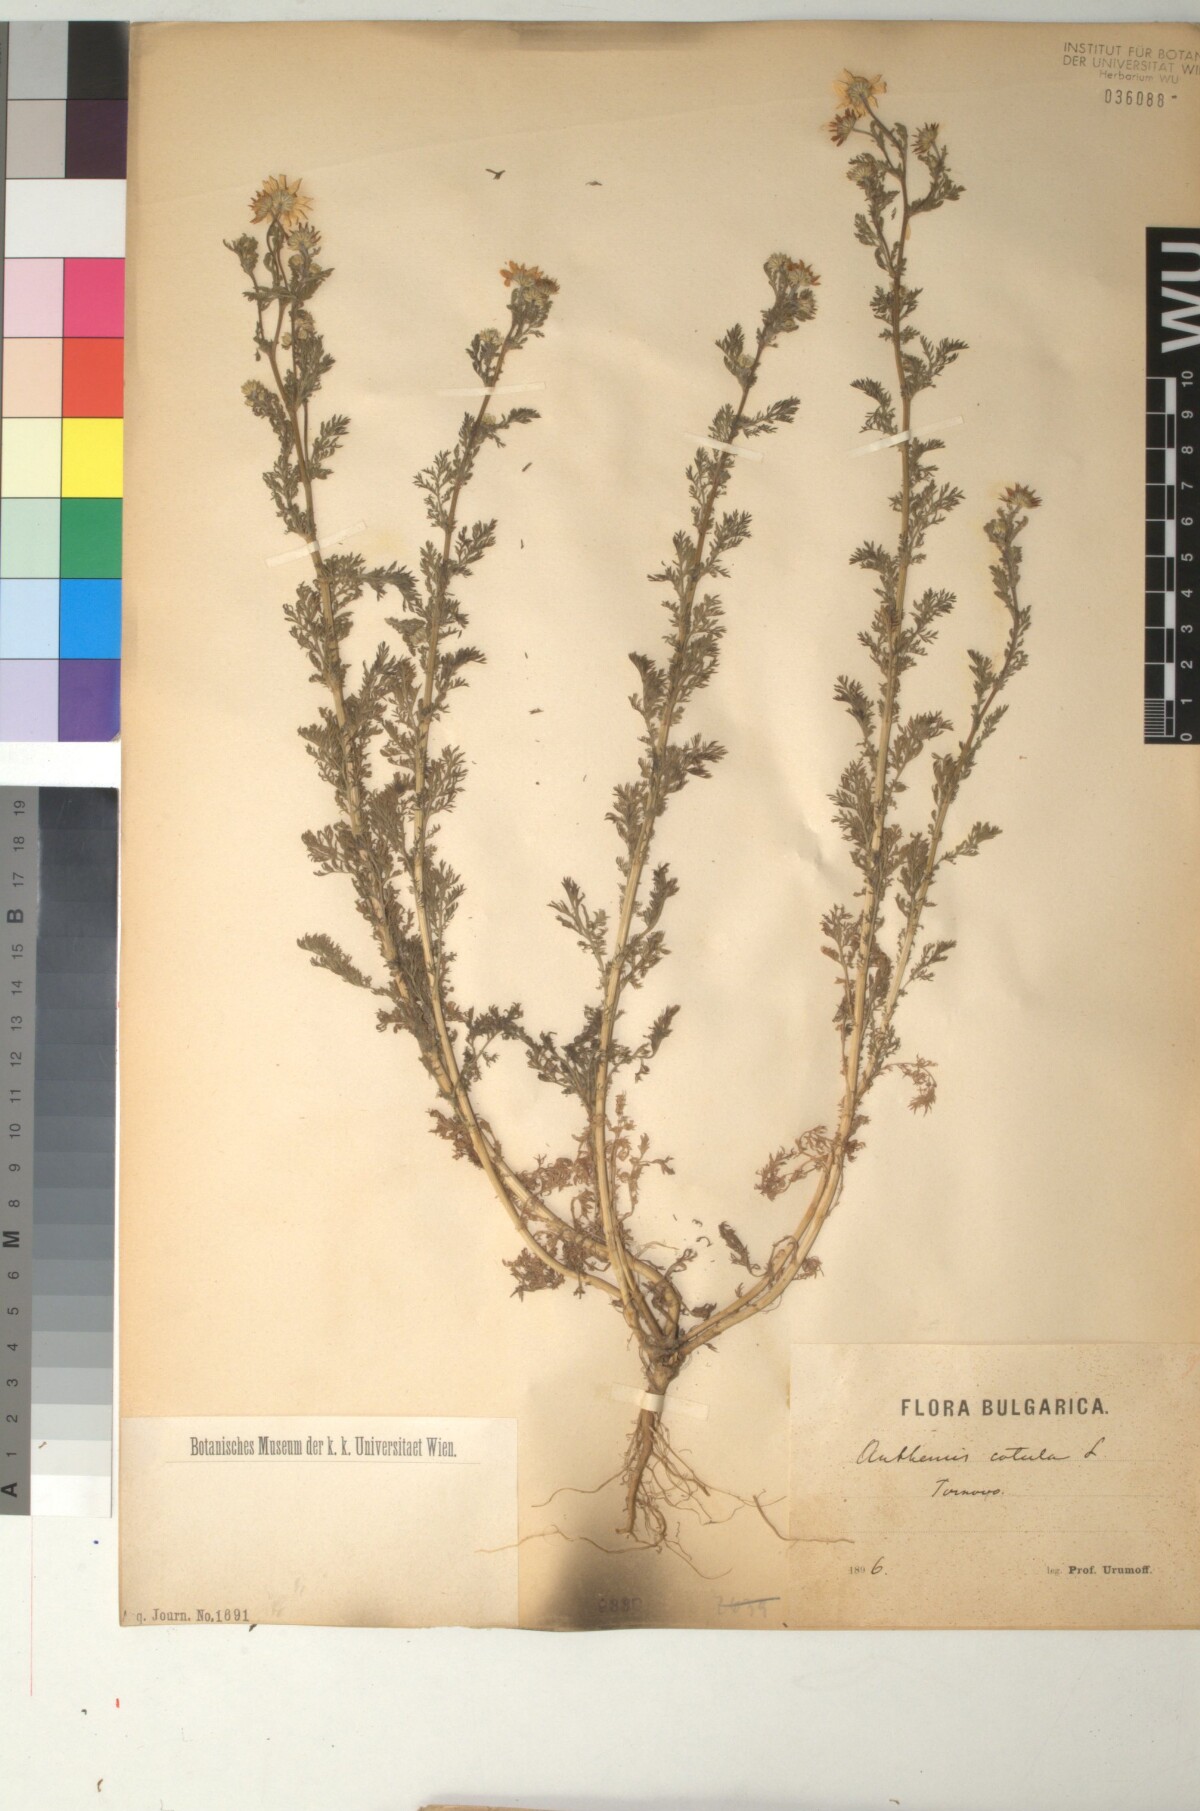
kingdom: Plantae
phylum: Tracheophyta
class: Magnoliopsida
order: Asterales
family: Asteraceae
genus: Anthemis
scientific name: Anthemis cotula
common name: Stinking chamomile
